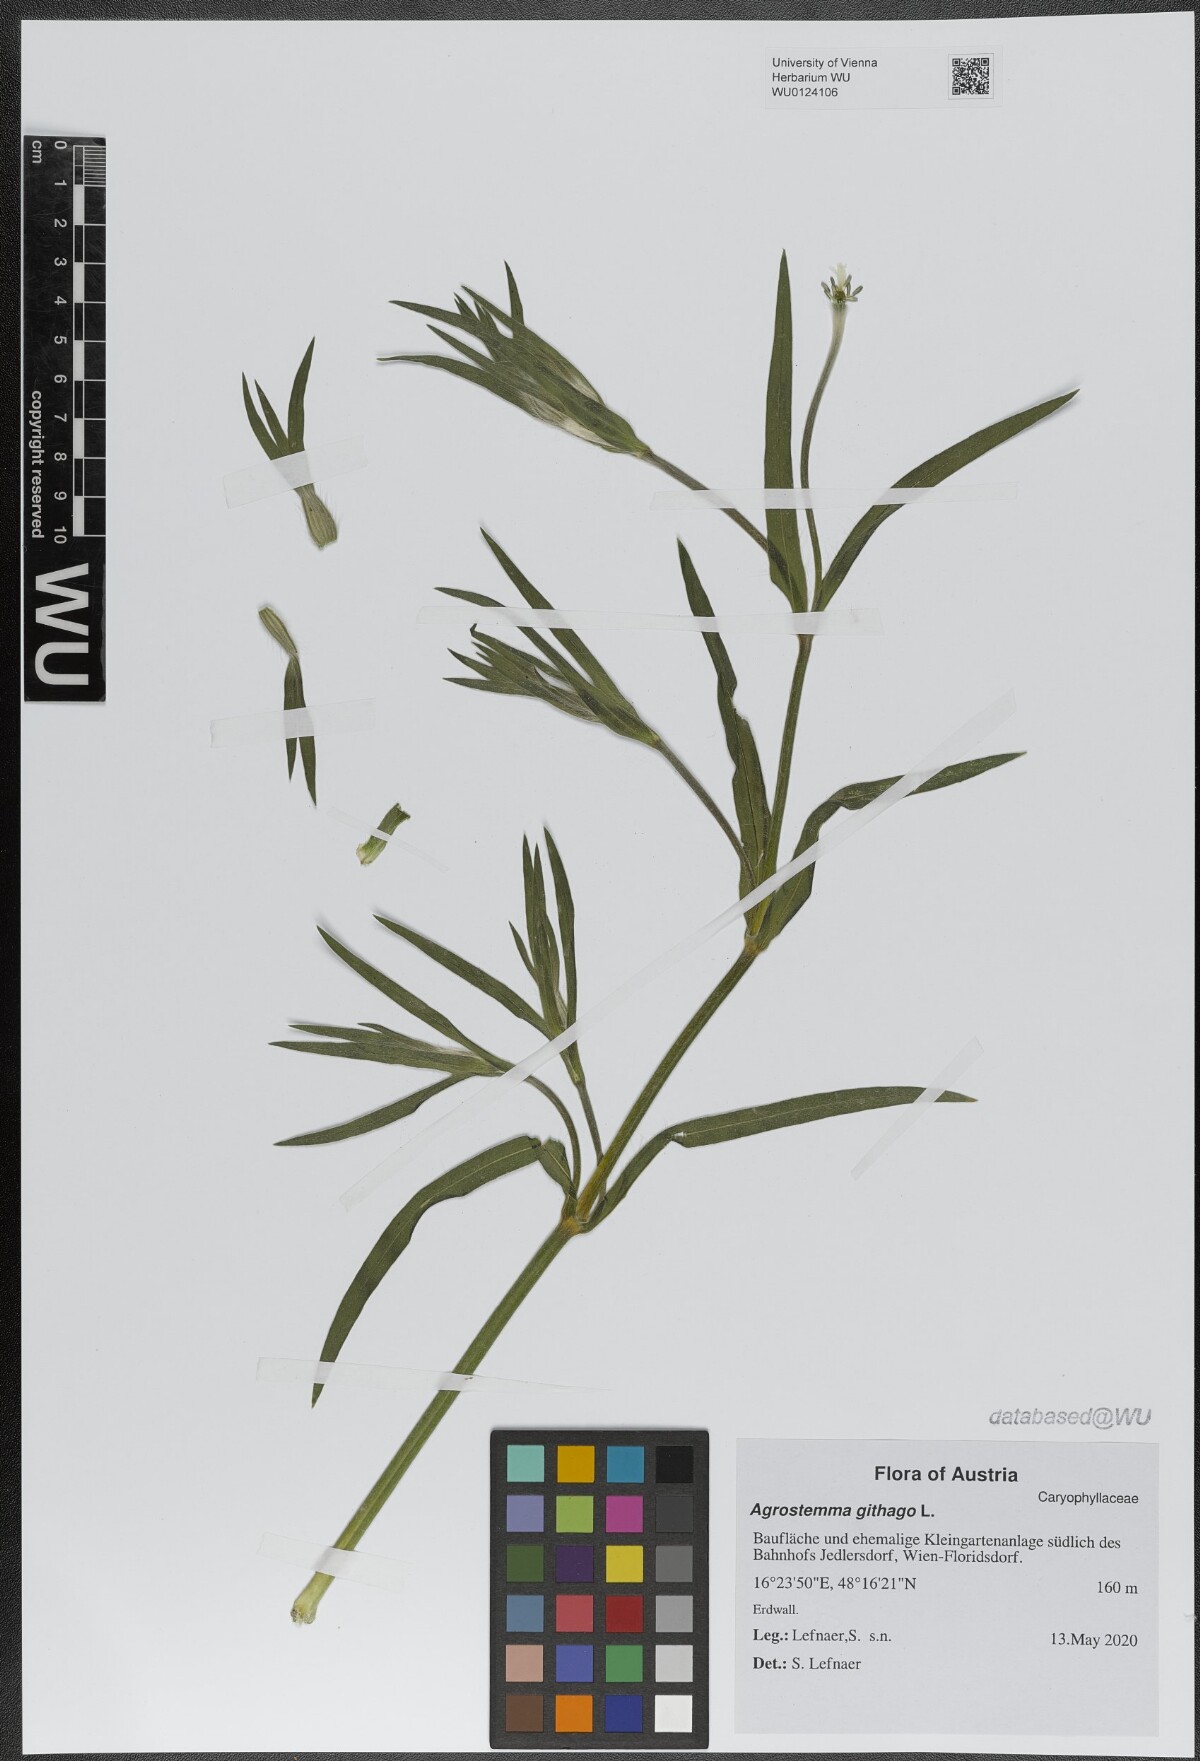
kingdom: Plantae
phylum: Tracheophyta
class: Magnoliopsida
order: Caryophyllales
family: Caryophyllaceae
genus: Agrostemma
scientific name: Agrostemma githago
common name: Common corncockle
